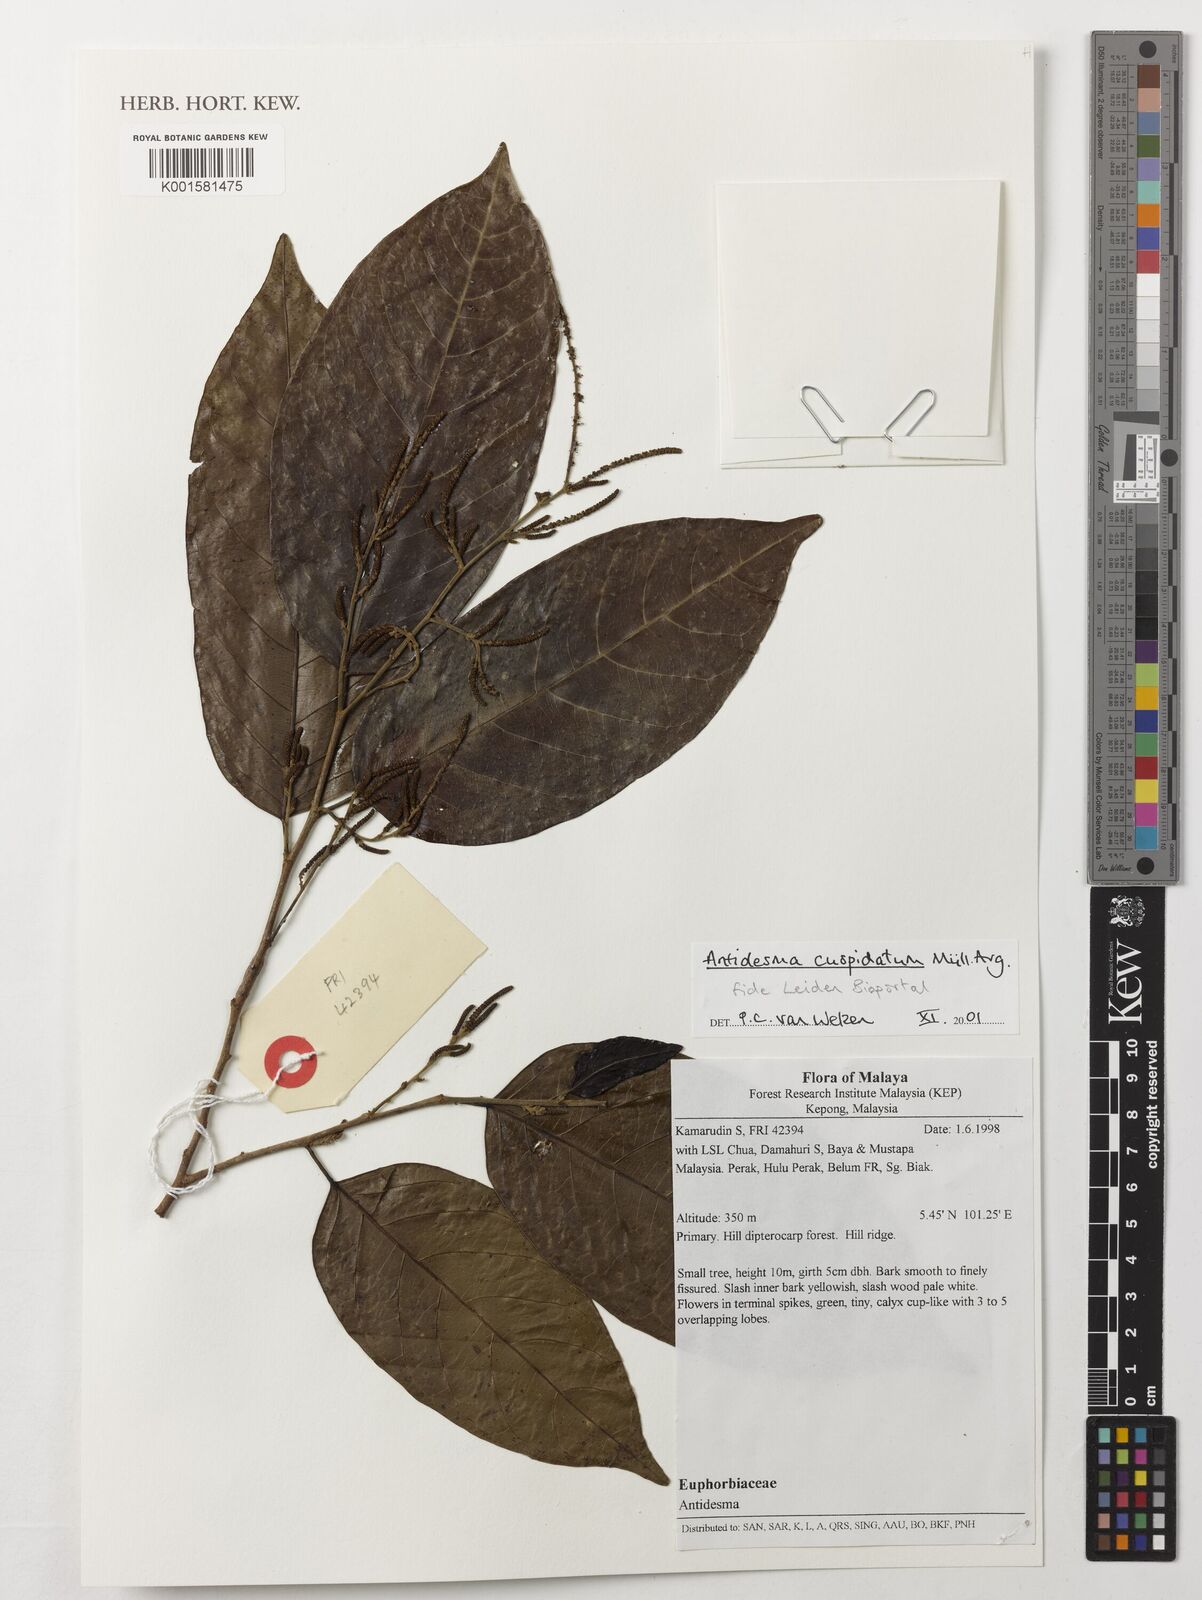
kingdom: Plantae
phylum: Tracheophyta
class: Magnoliopsida
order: Malpighiales
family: Phyllanthaceae
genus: Antidesma
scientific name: Antidesma cuspidatum
